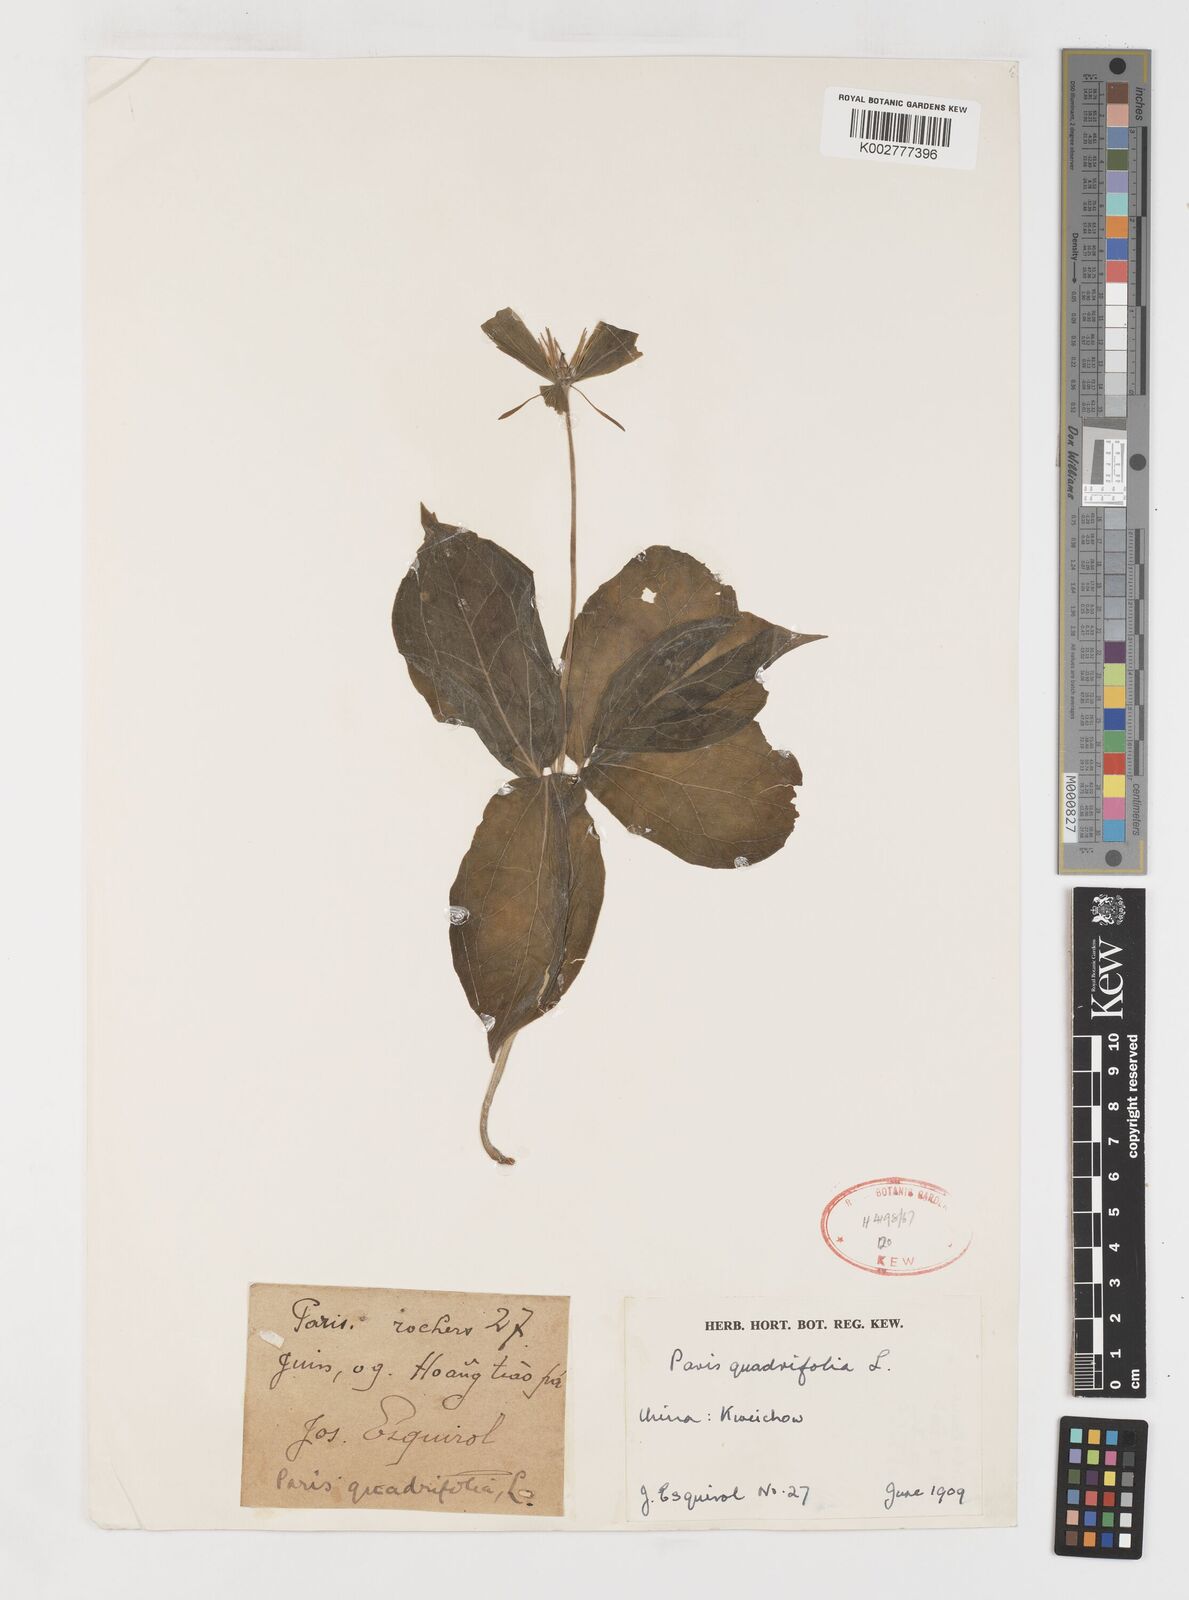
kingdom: Plantae
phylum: Tracheophyta
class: Liliopsida
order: Liliales
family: Melanthiaceae
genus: Paris
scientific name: Paris quadrifolia
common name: Herb-paris
